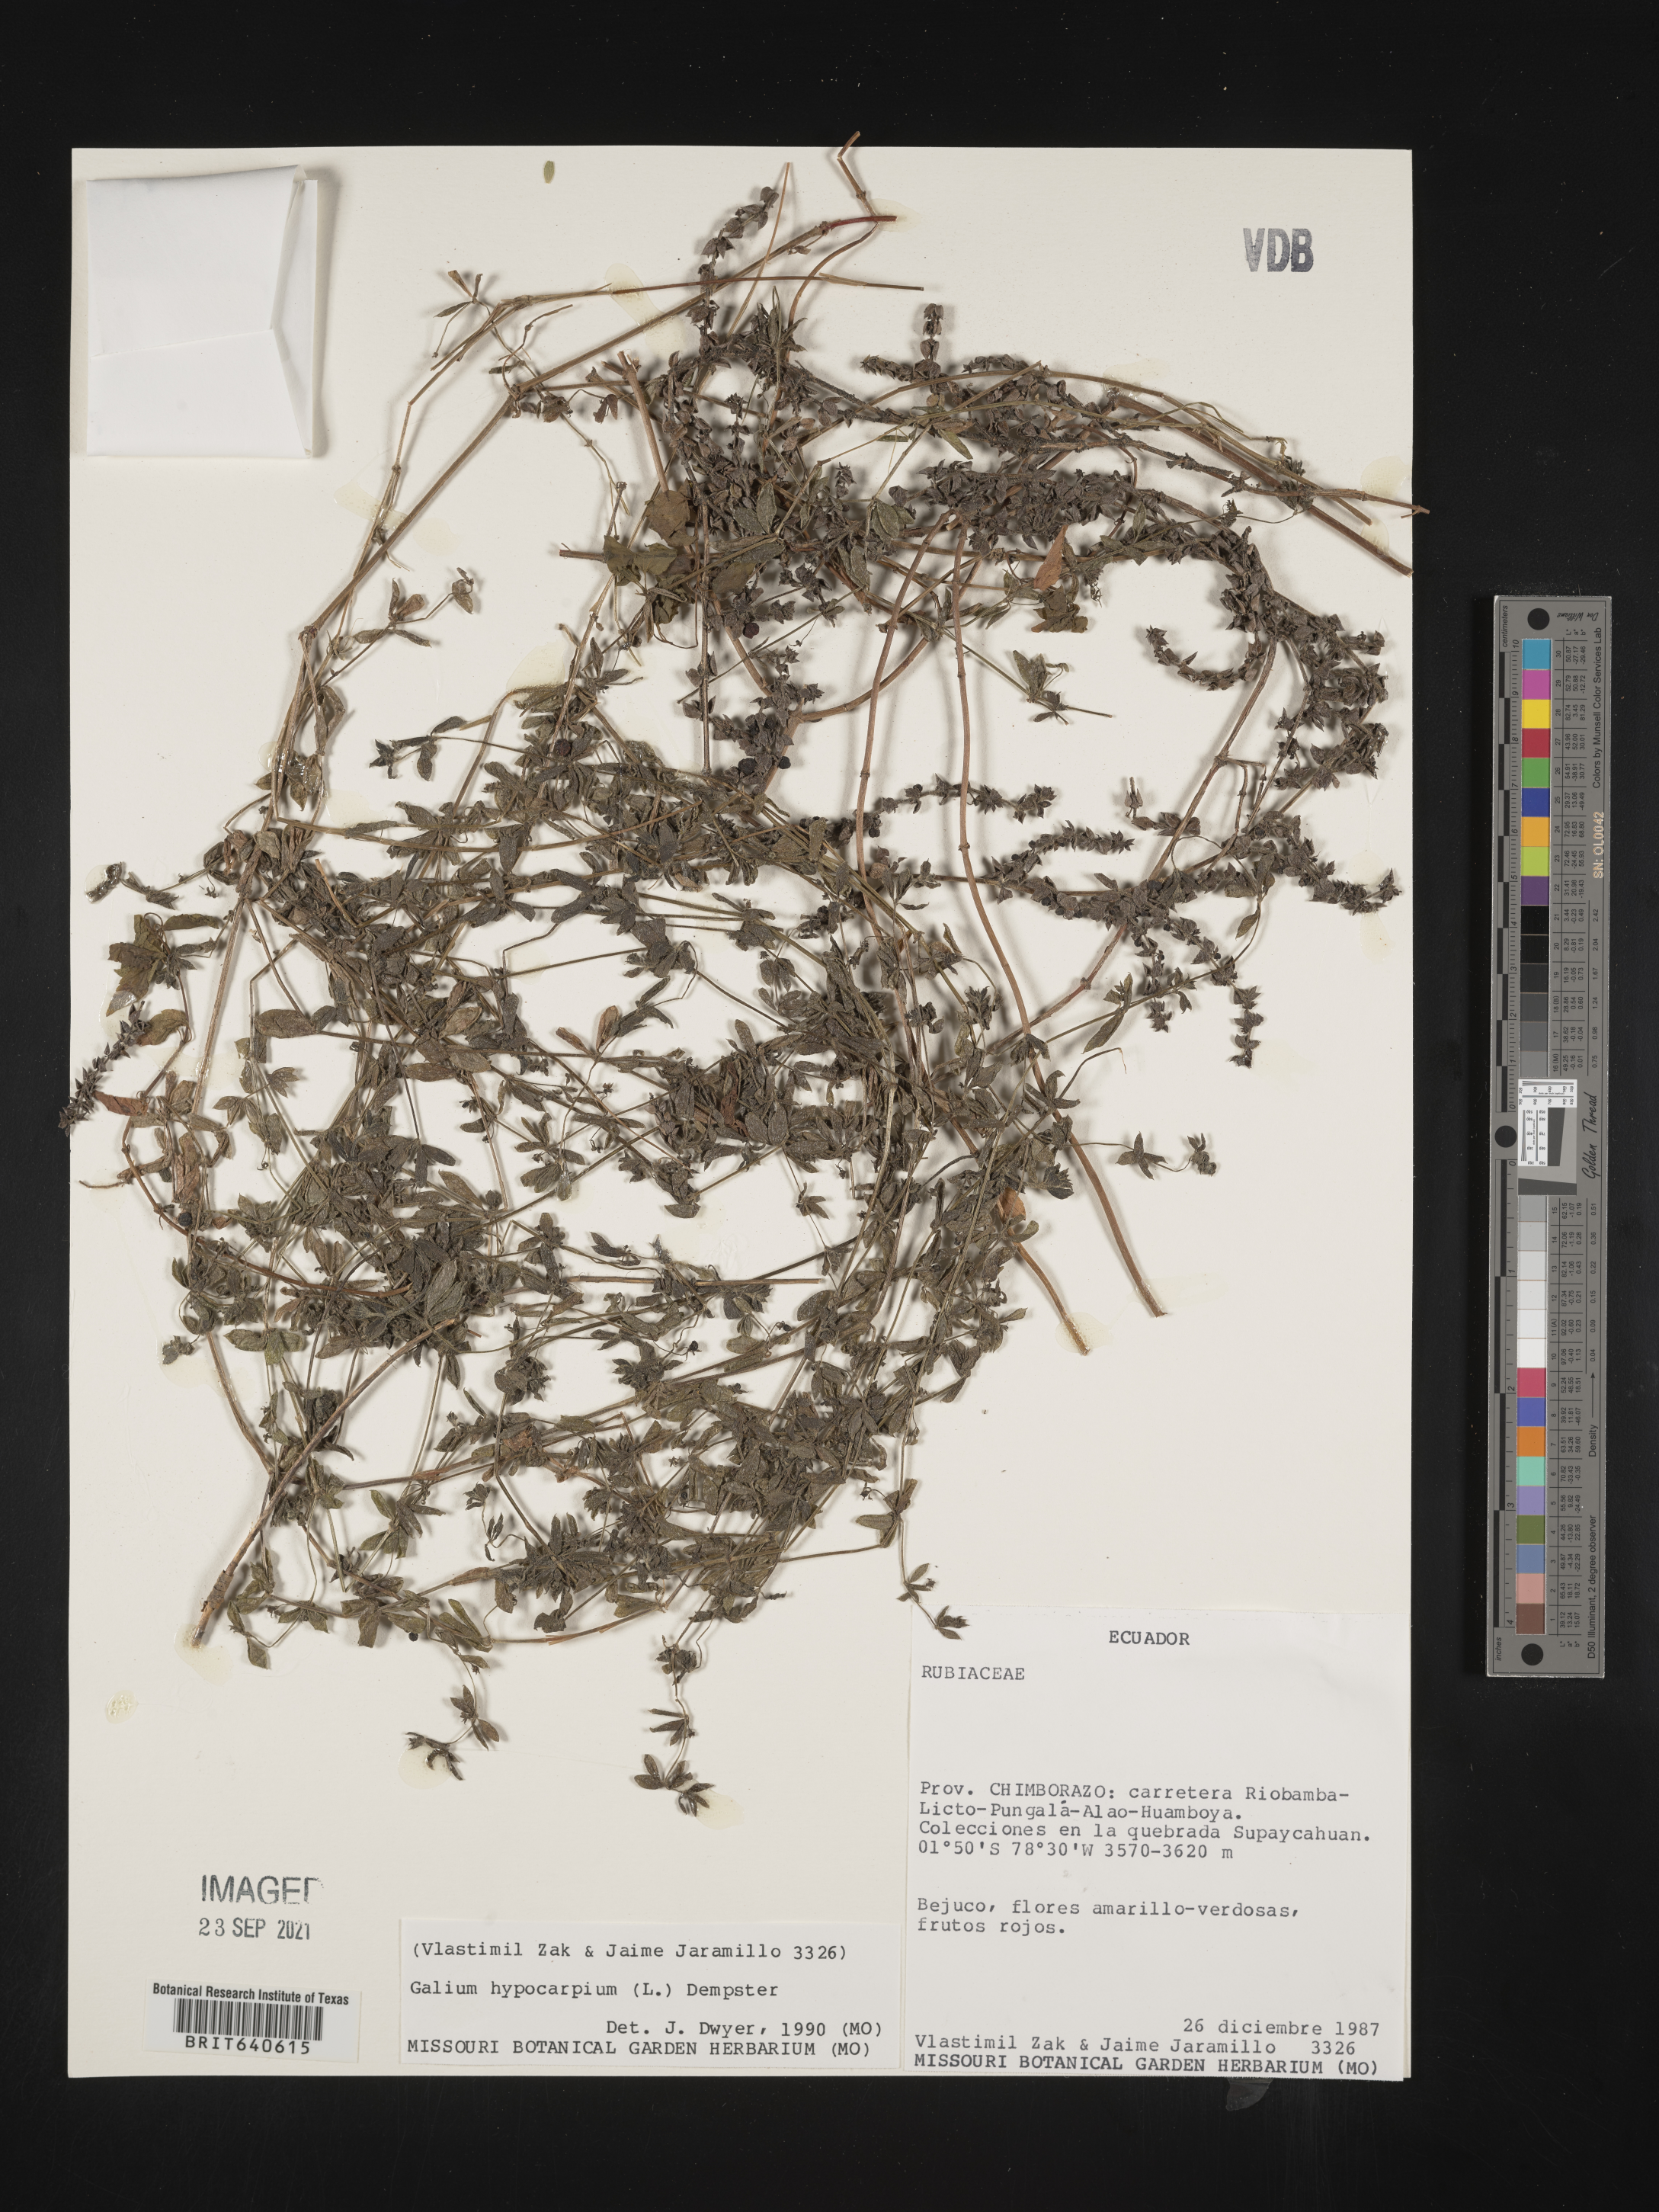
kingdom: Plantae
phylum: Tracheophyta
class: Magnoliopsida
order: Gentianales
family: Rubiaceae
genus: Galium
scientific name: Galium
